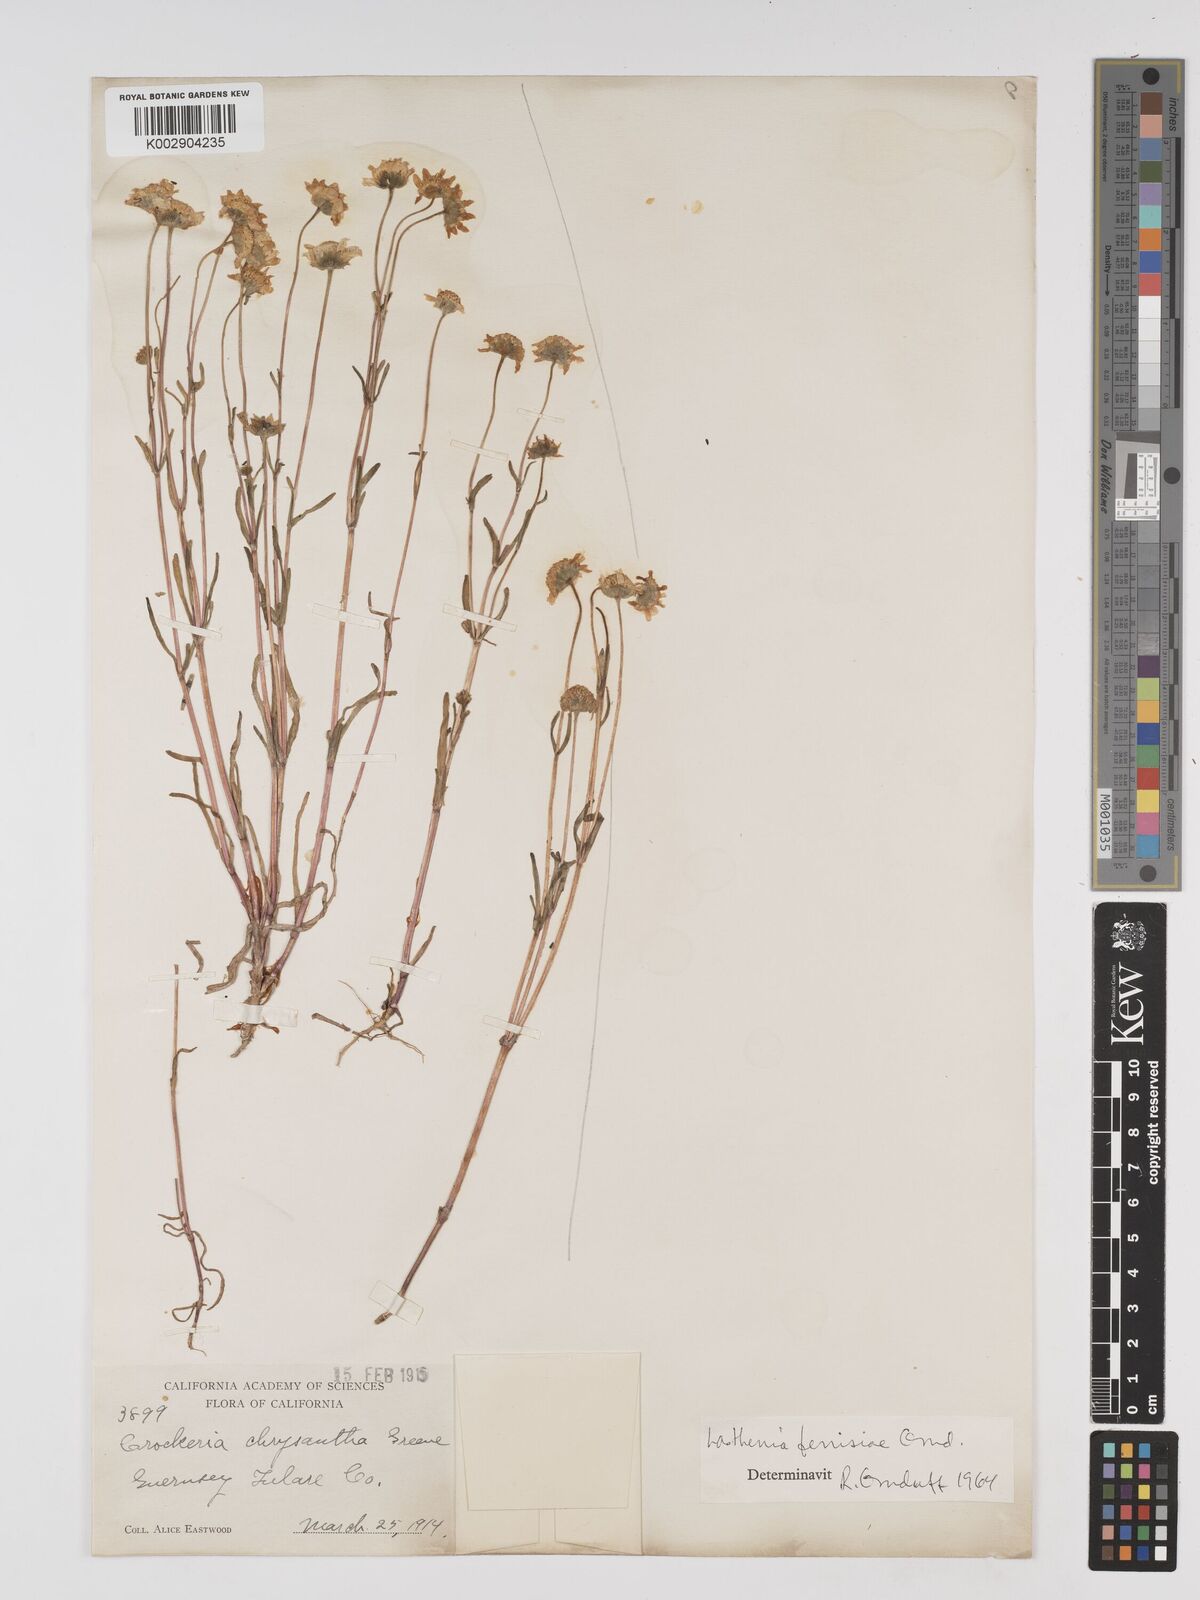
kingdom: Plantae
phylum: Tracheophyta
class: Magnoliopsida
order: Asterales
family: Asteraceae
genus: Lasthenia
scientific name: Lasthenia ferrisiae
